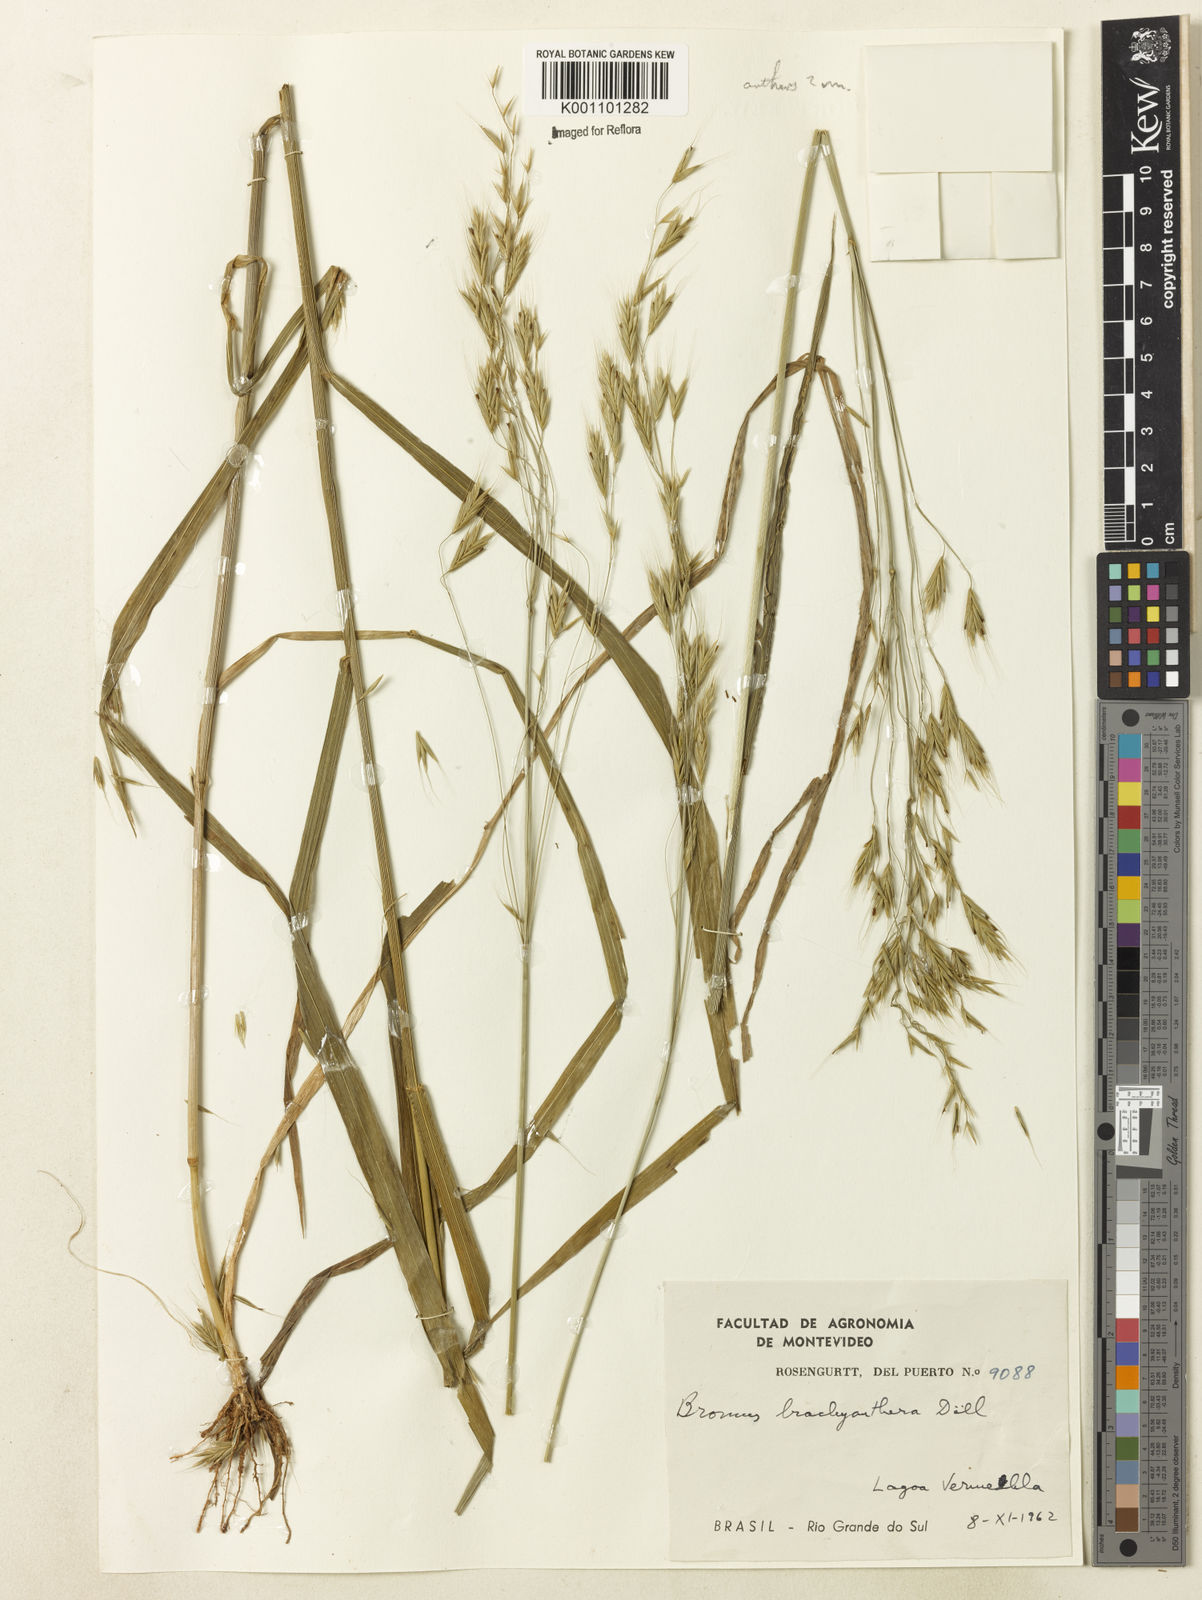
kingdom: Plantae
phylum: Tracheophyta
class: Liliopsida
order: Poales
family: Poaceae
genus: Bromus
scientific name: Bromus
